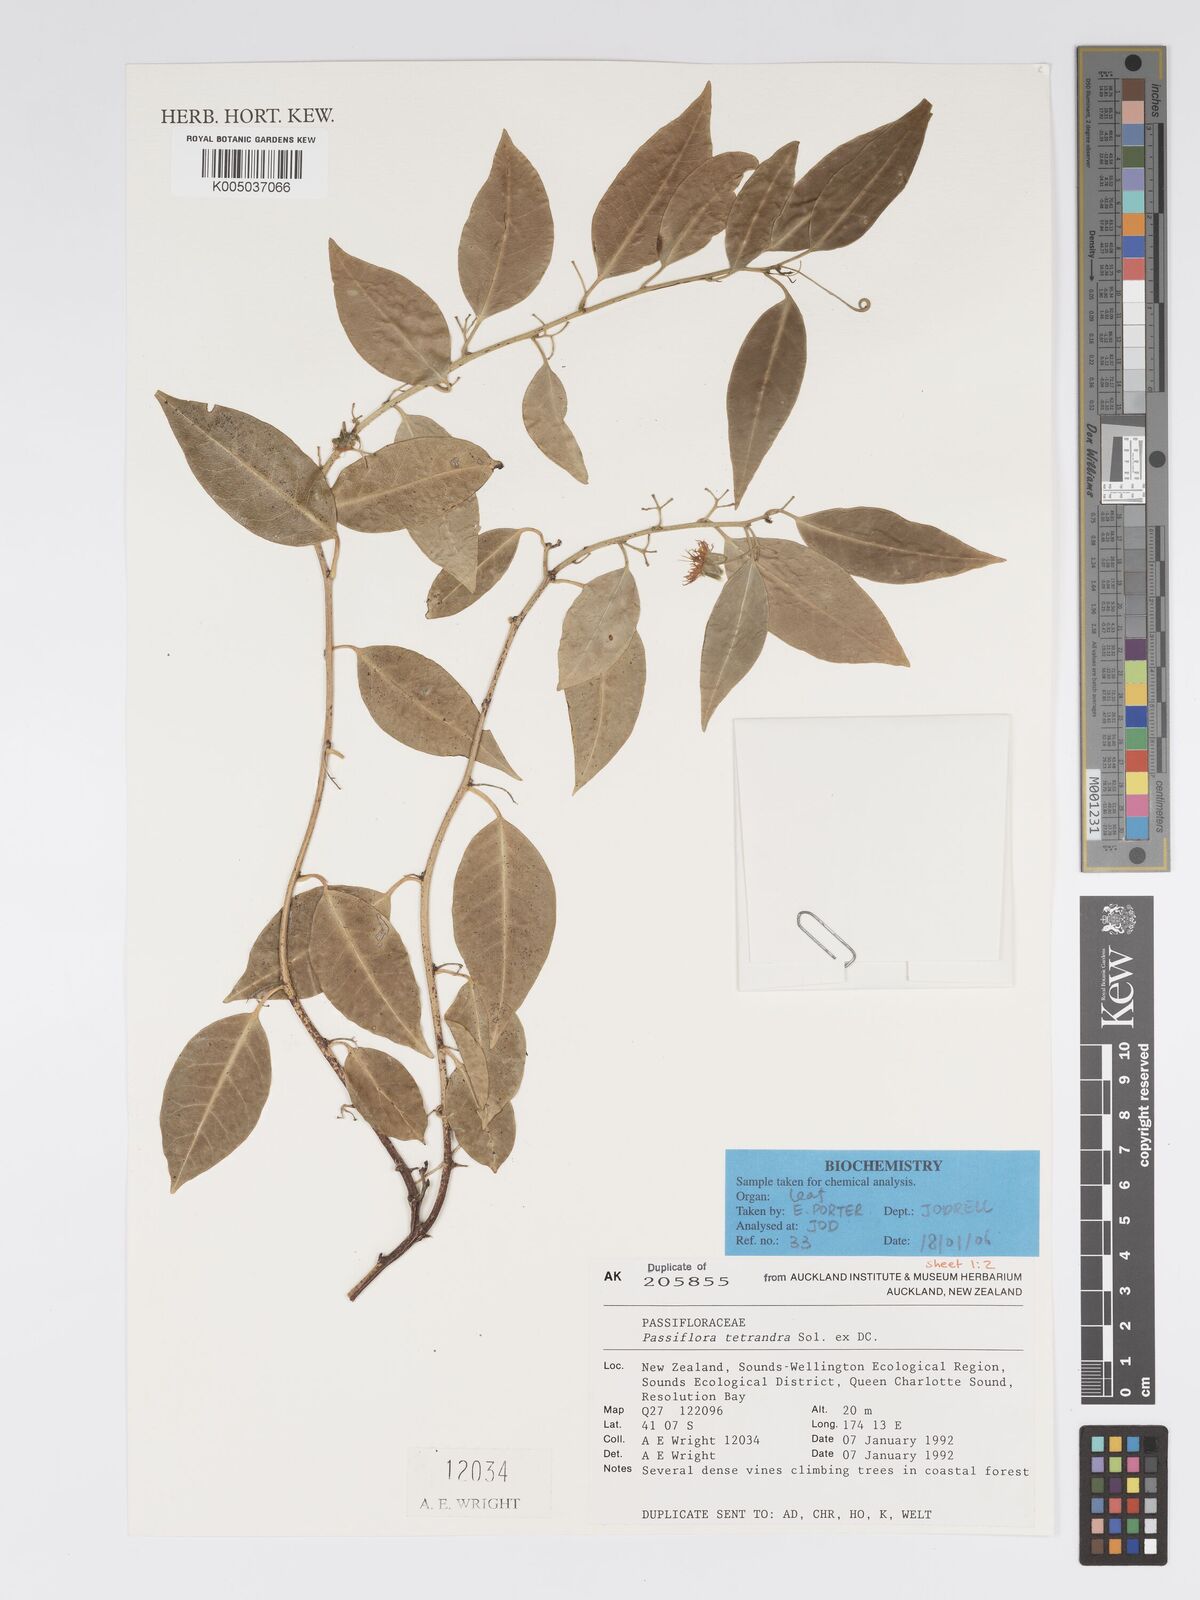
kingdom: Plantae
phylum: Tracheophyta
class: Magnoliopsida
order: Malpighiales
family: Passifloraceae
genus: Passiflora
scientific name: Passiflora tetrandra
